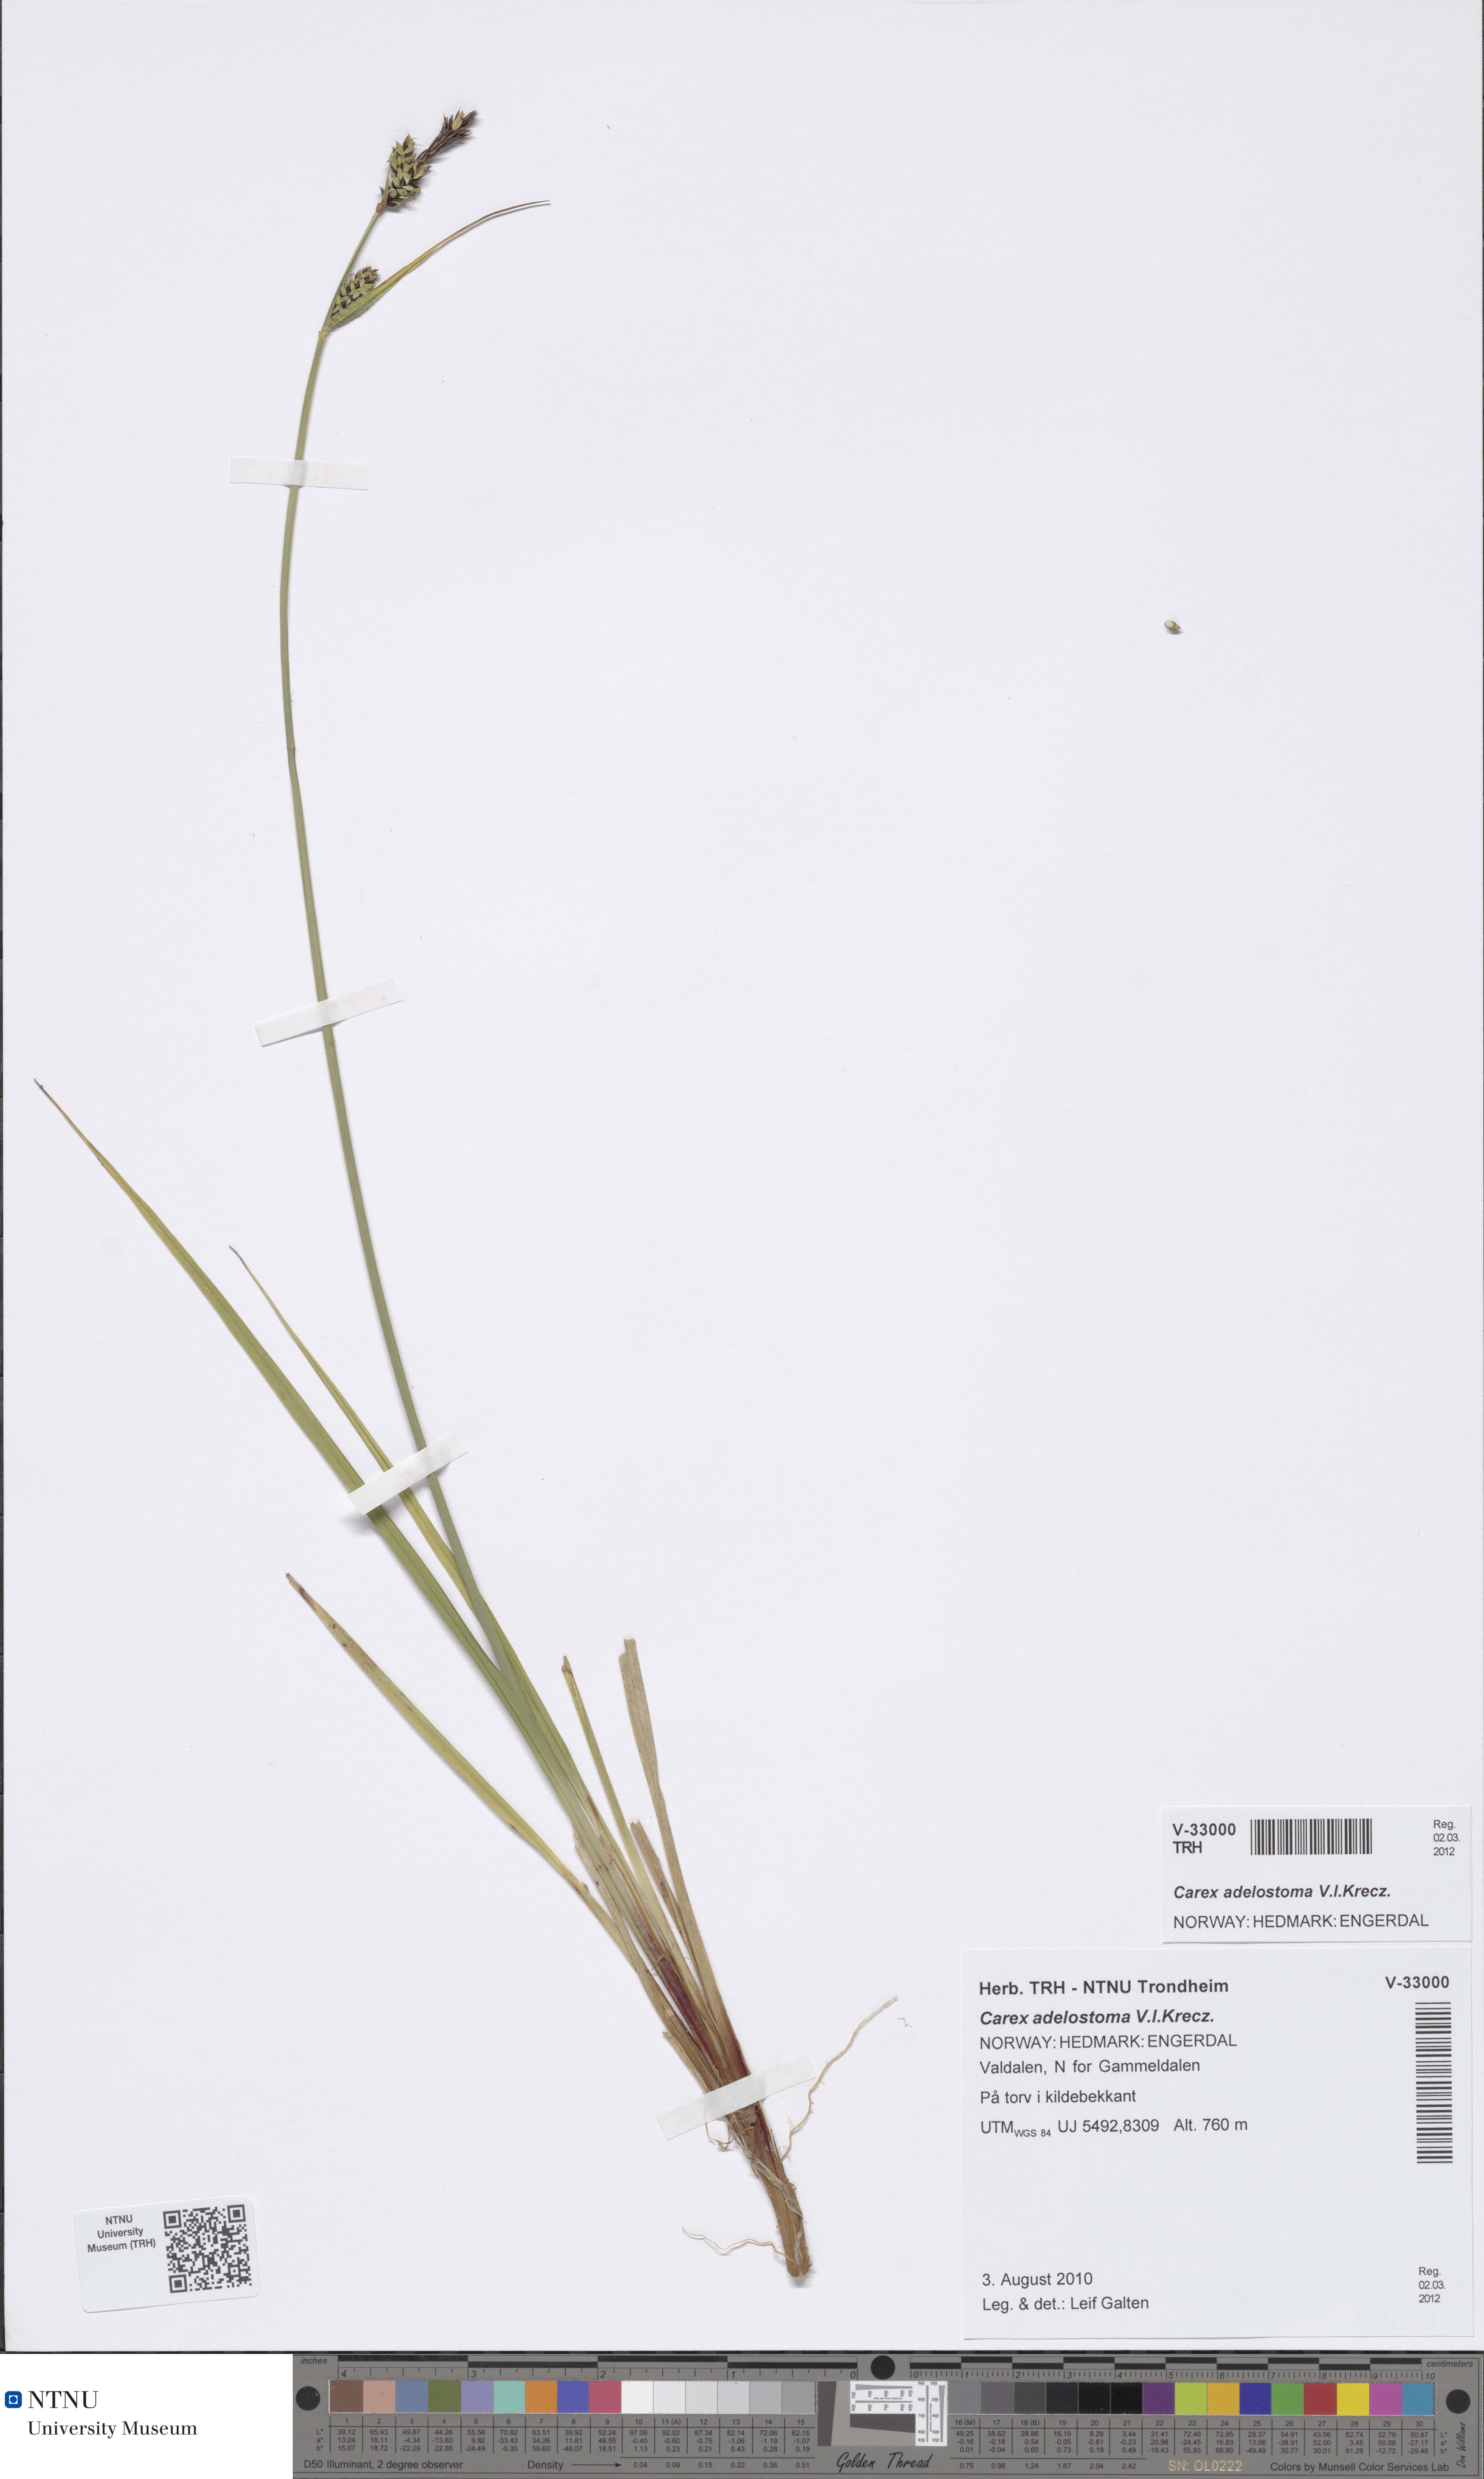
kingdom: Plantae
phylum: Tracheophyta
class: Liliopsida
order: Poales
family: Cyperaceae
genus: Carex
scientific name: Carex adelostoma
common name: Circumpolar sedge
